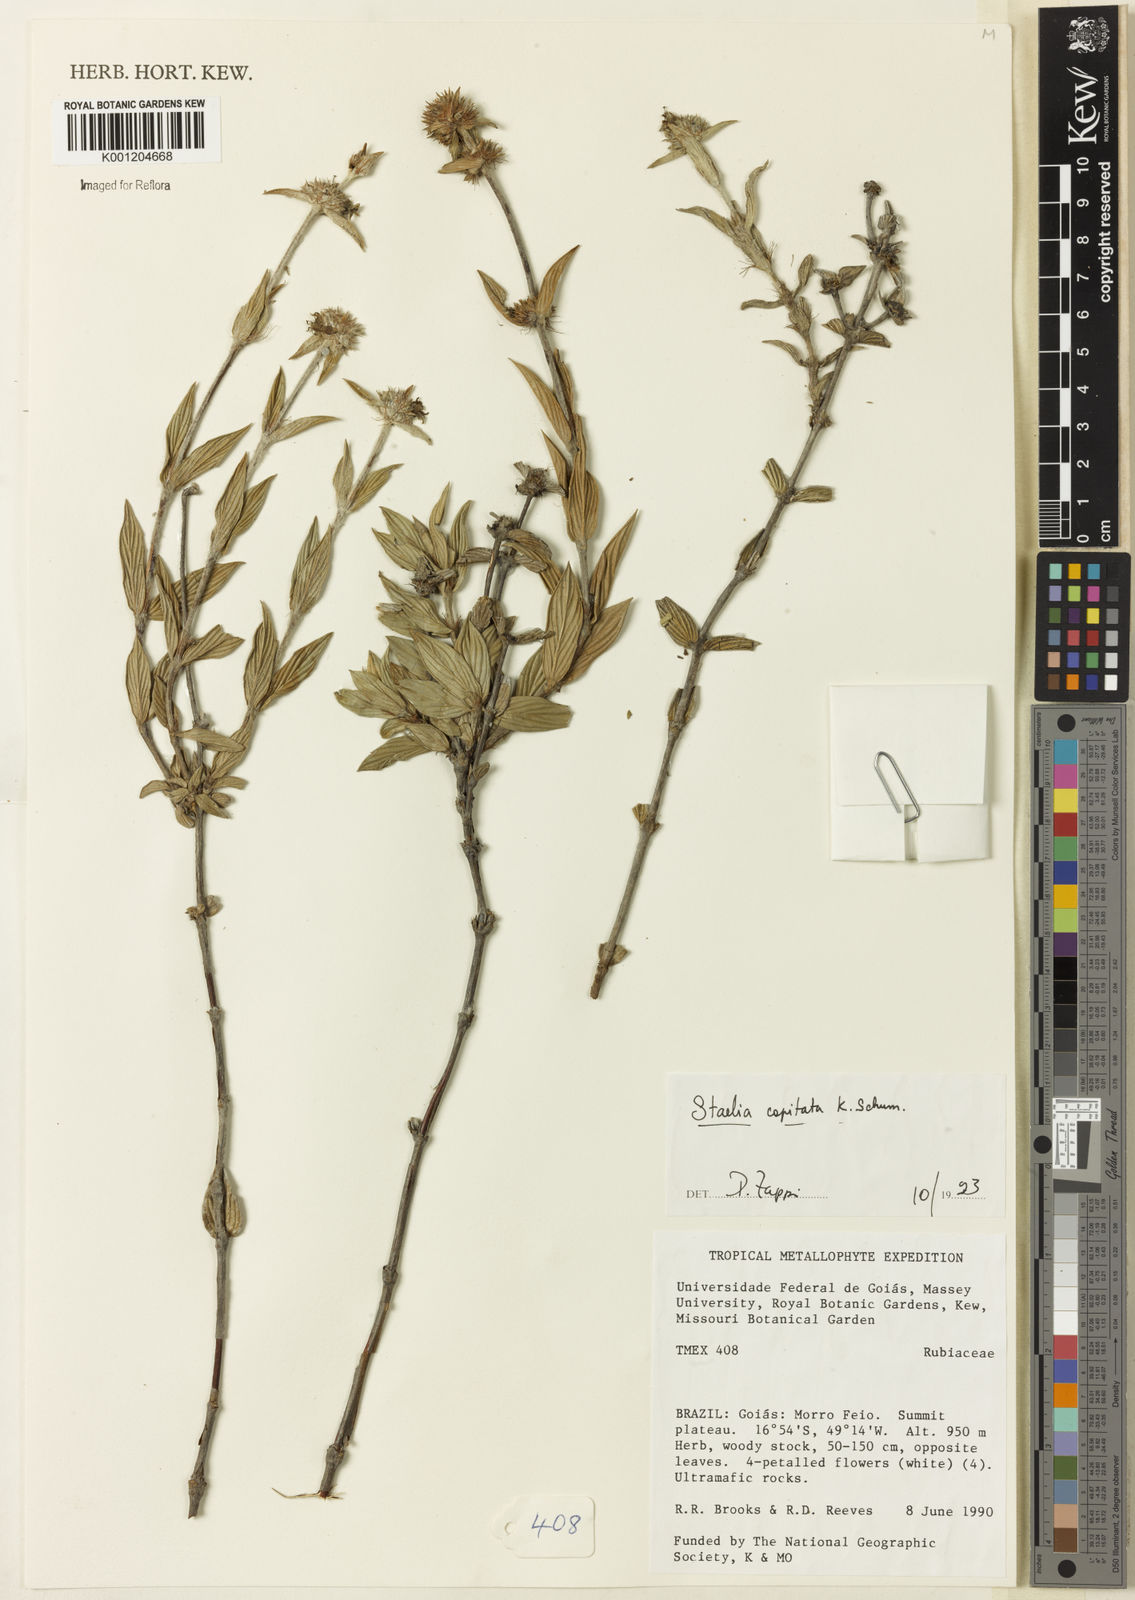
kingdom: Plantae
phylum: Tracheophyta
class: Magnoliopsida
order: Gentianales
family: Rubiaceae
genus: Planaltina
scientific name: Planaltina capitata
